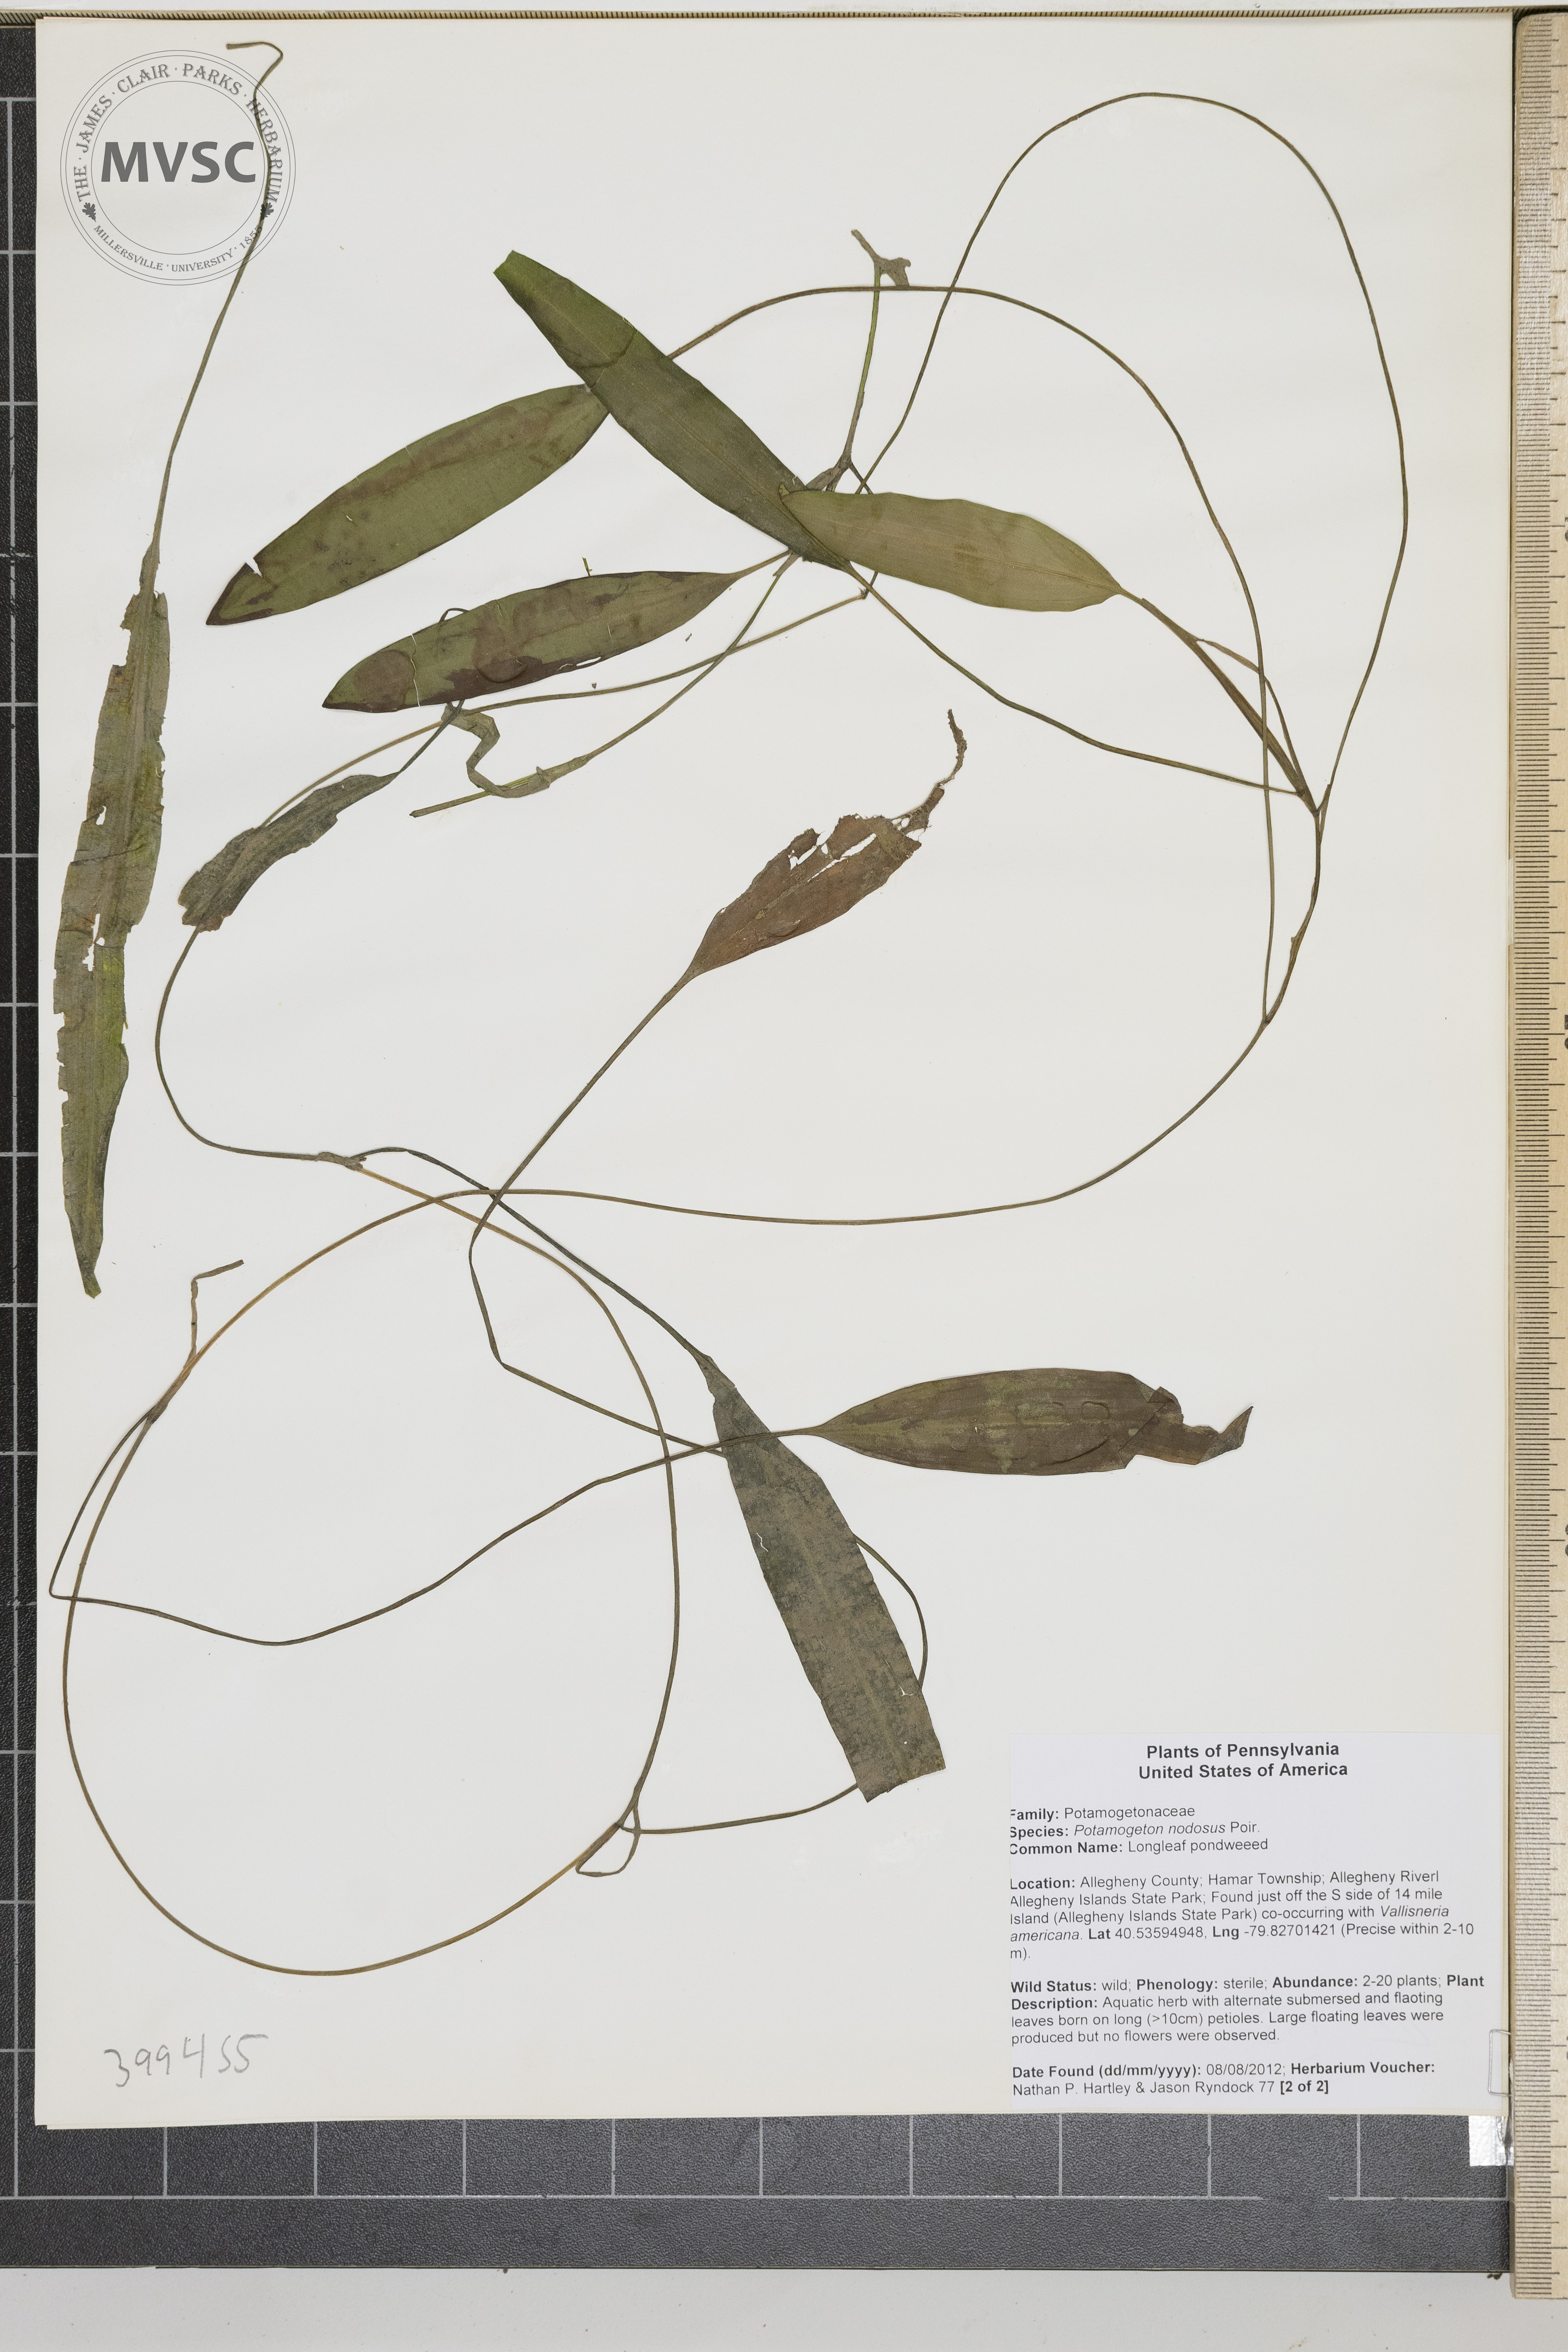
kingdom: Plantae
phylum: Tracheophyta
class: Liliopsida
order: Alismatales
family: Potamogetonaceae
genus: Potamogeton
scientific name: Potamogeton nodosus
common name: Longleaf pondweed
